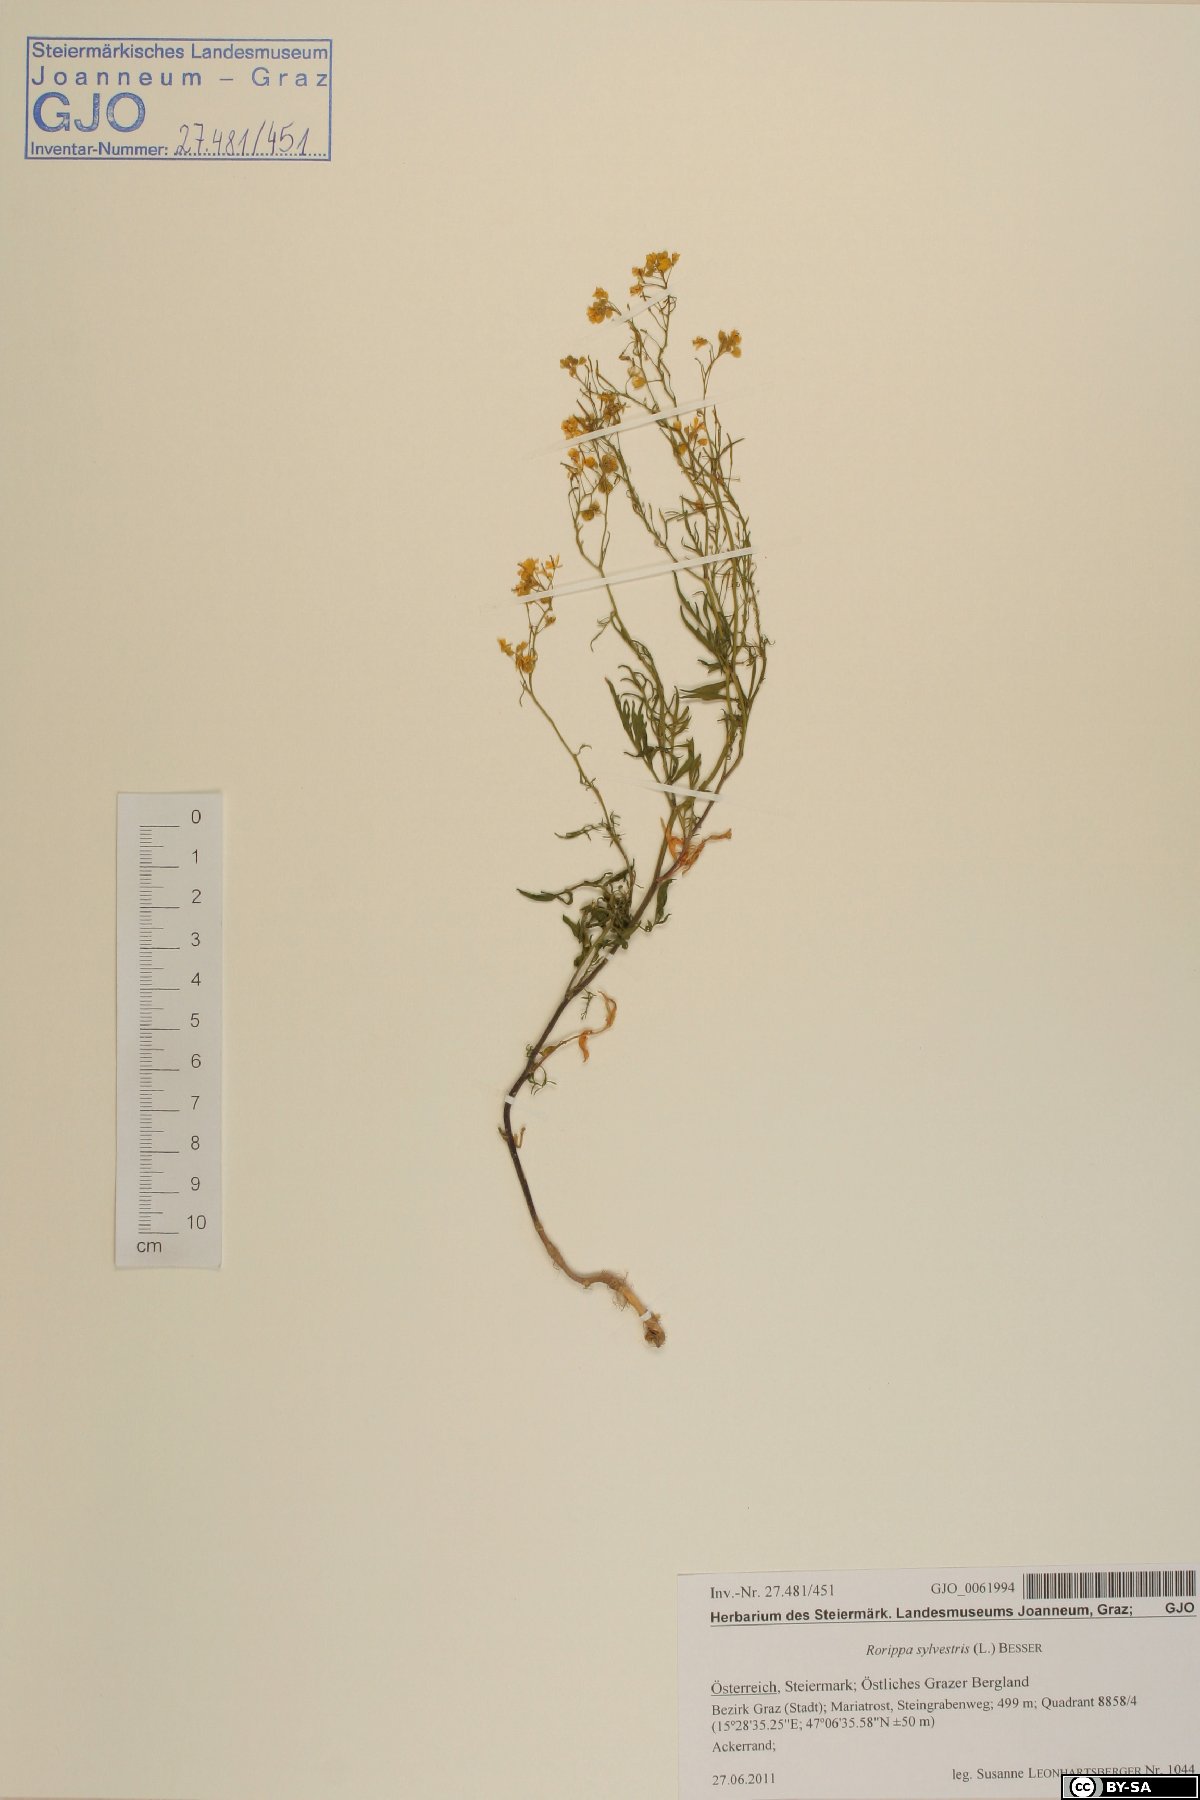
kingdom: Plantae
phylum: Tracheophyta
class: Magnoliopsida
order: Brassicales
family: Brassicaceae
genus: Rorippa
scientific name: Rorippa sylvestris
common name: Creeping yellowcress
